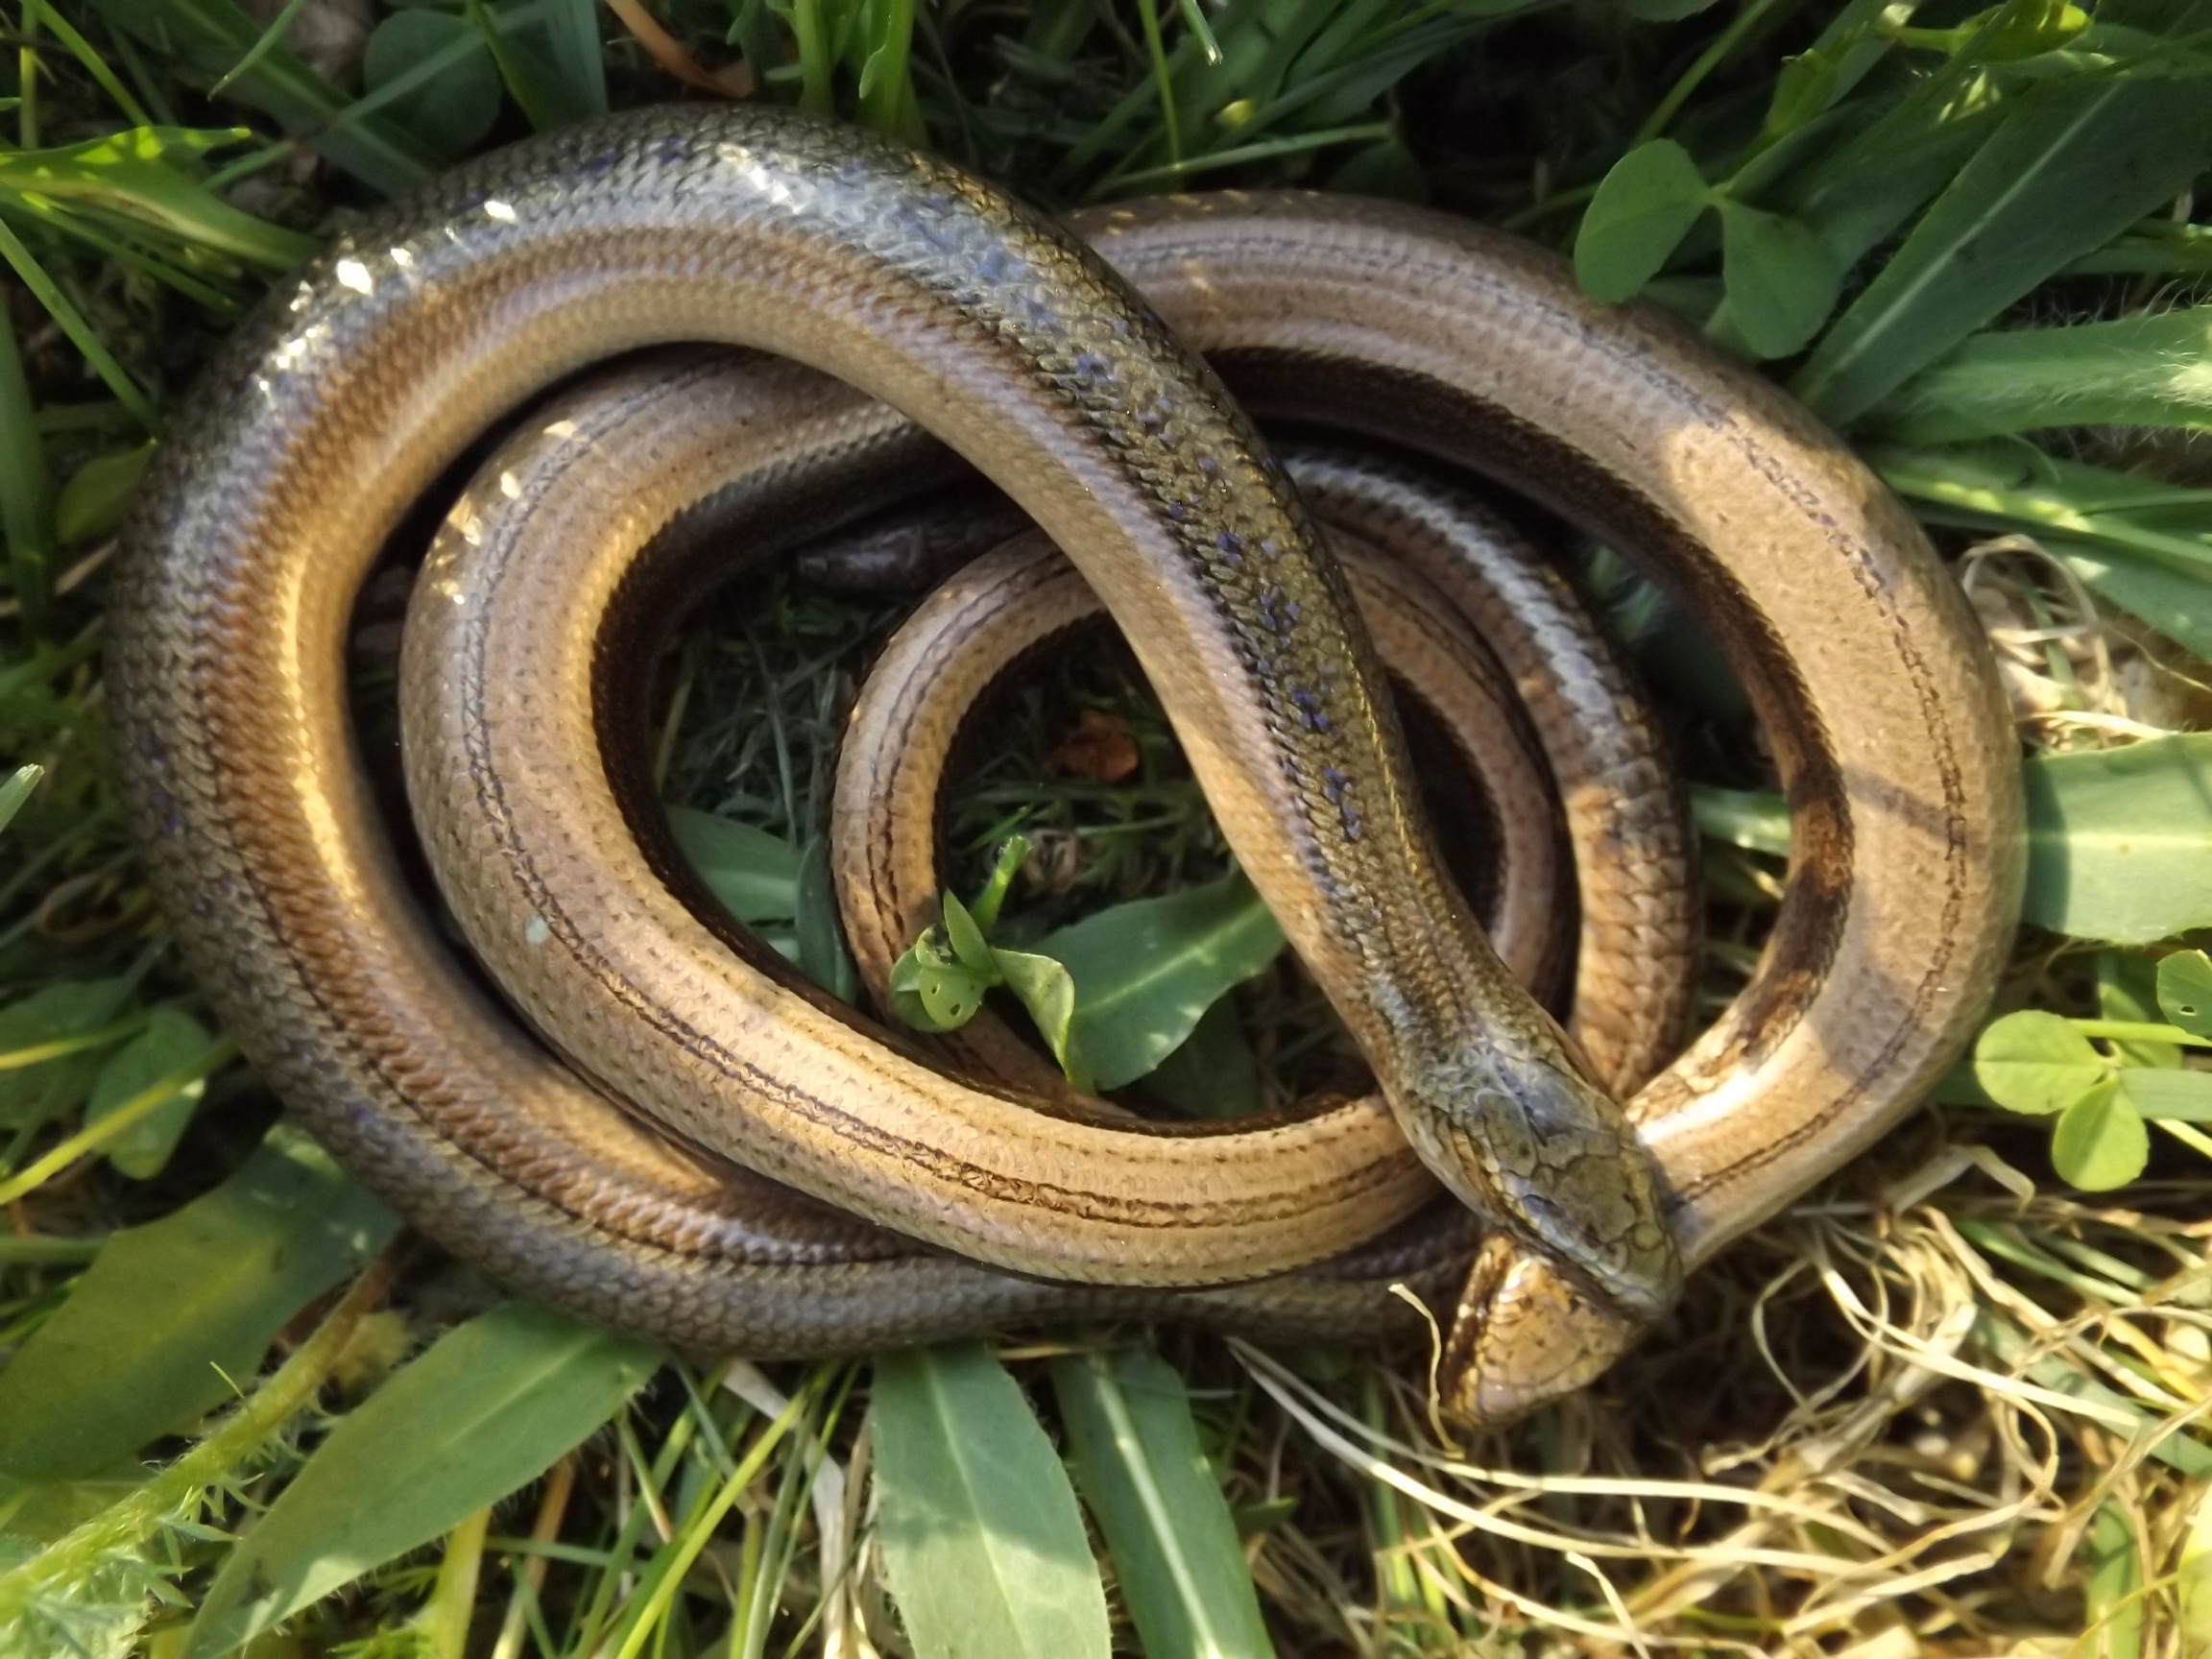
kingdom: Animalia
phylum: Chordata
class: Squamata
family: Anguidae
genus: Anguis
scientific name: Anguis colchica
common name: Slow worm
